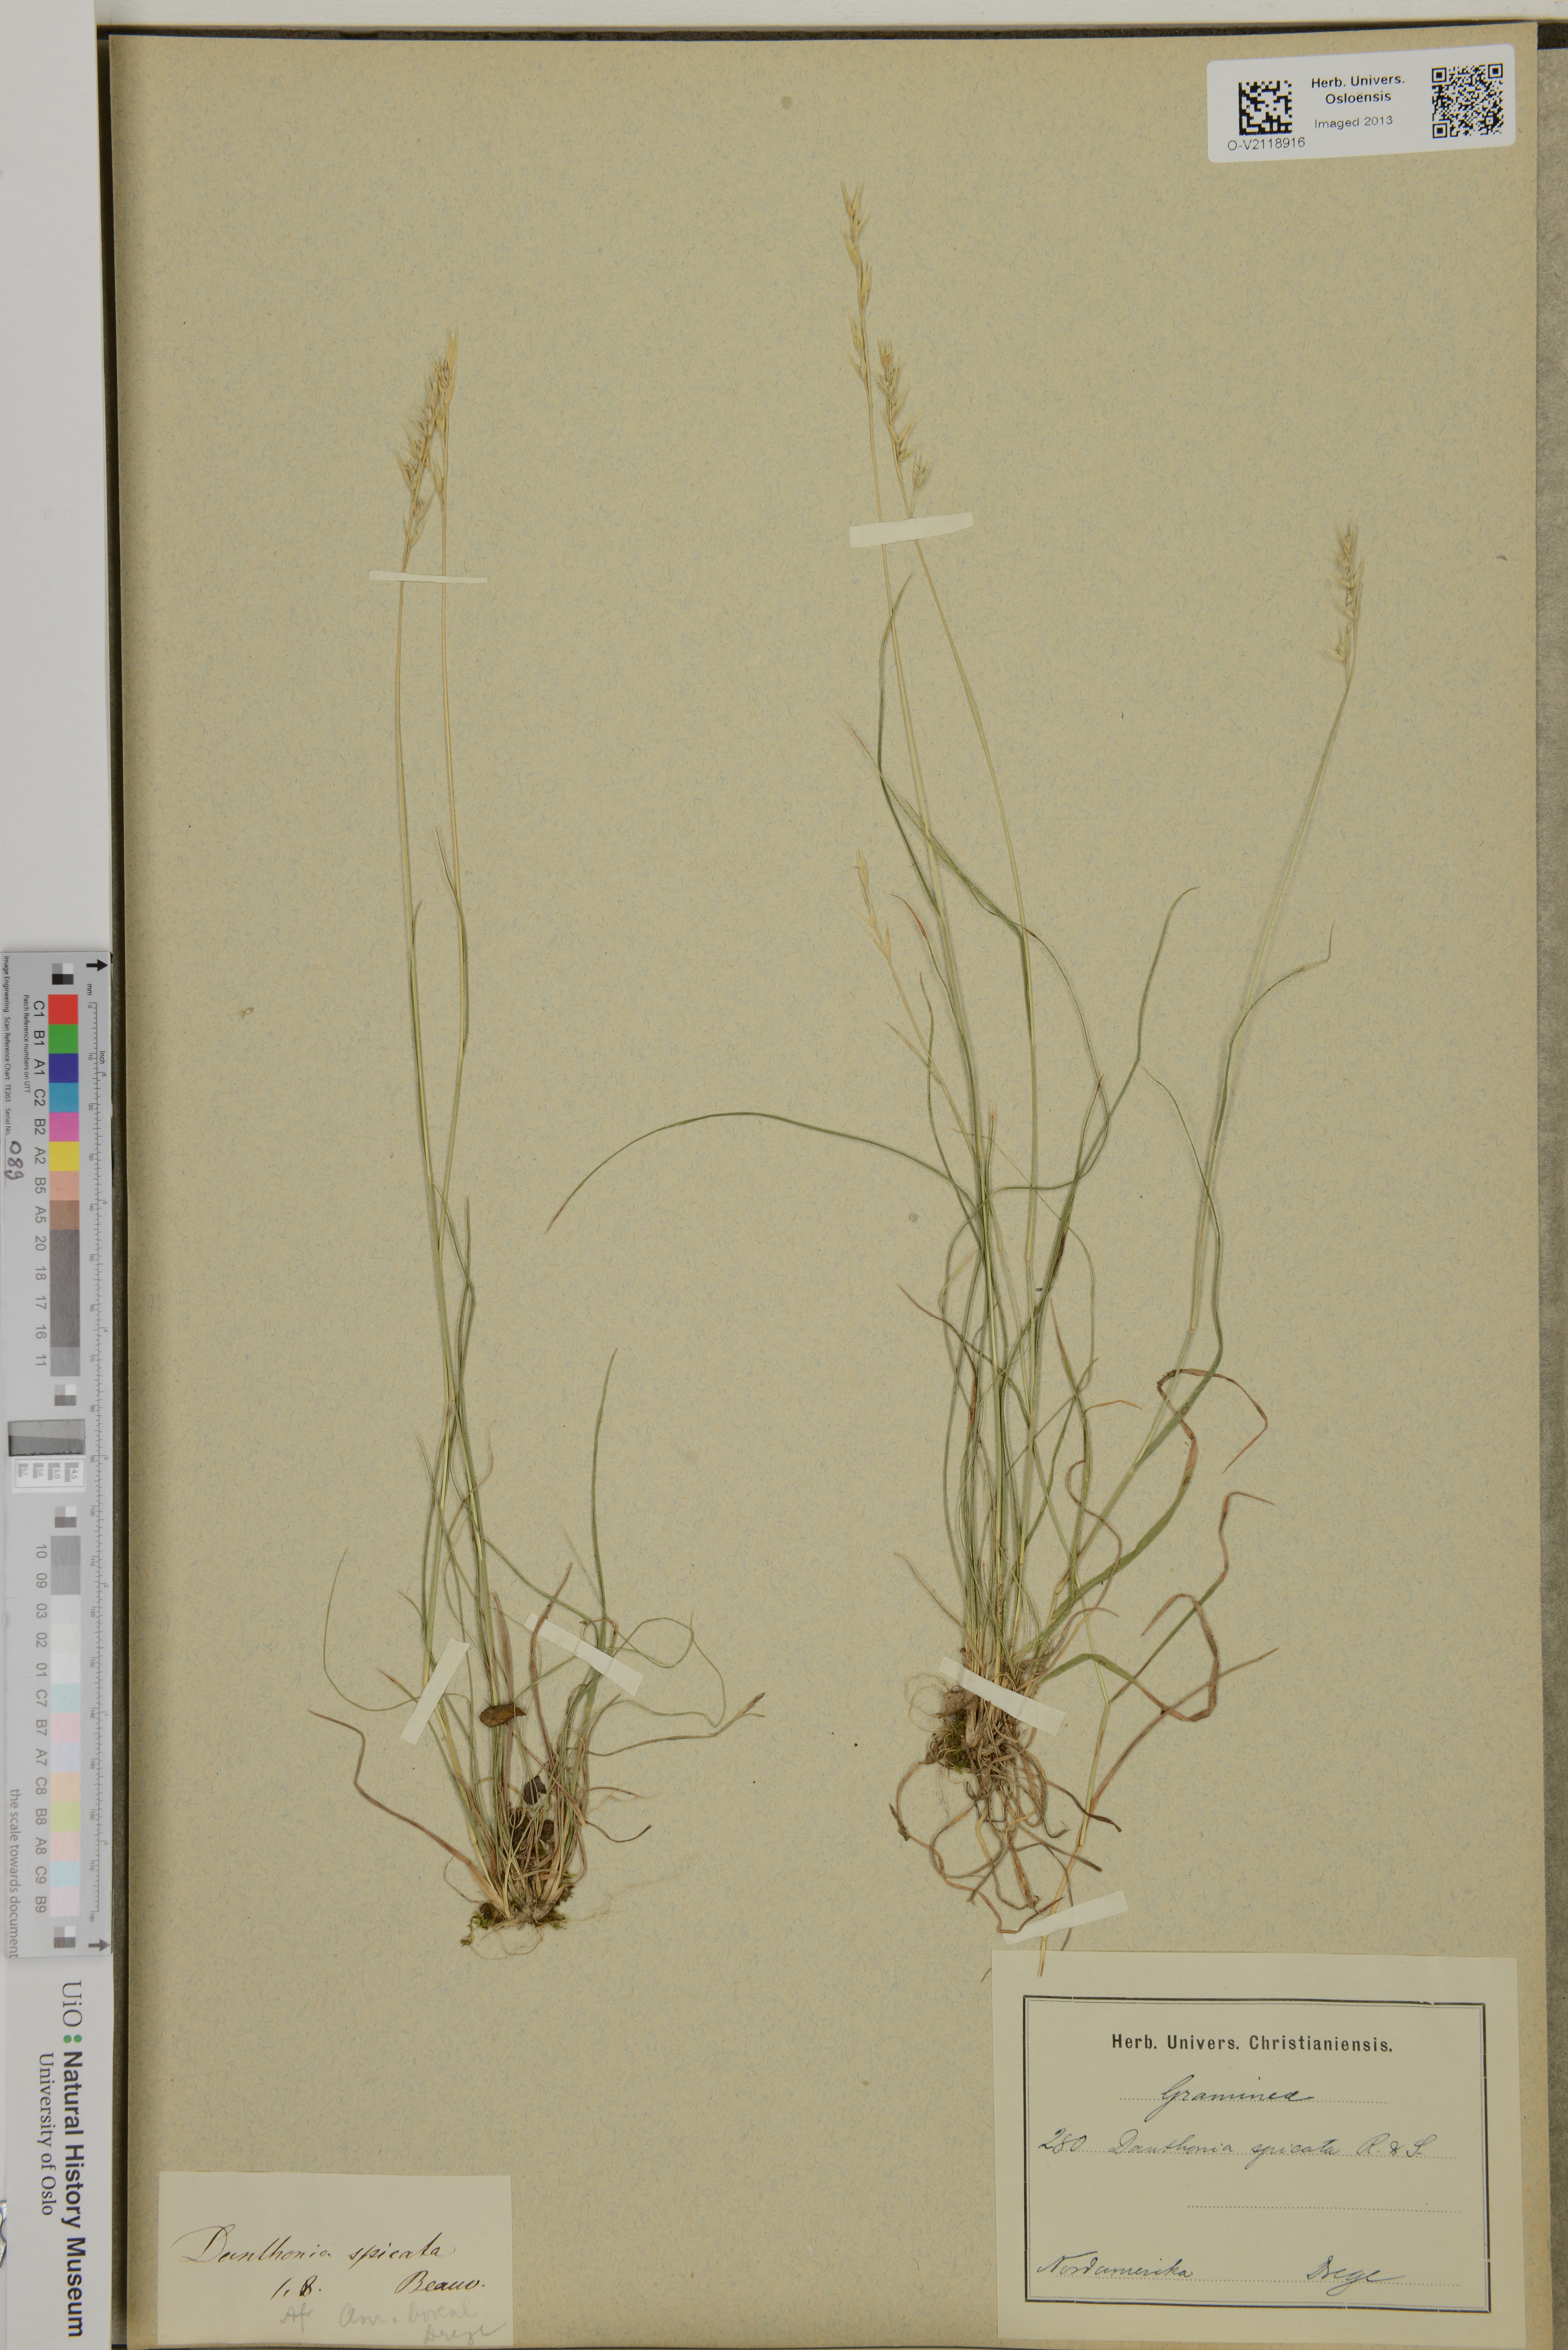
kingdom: Plantae
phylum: Tracheophyta
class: Liliopsida
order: Poales
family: Poaceae
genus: Danthonia
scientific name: Danthonia spicata
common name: Common wild oatgrass
